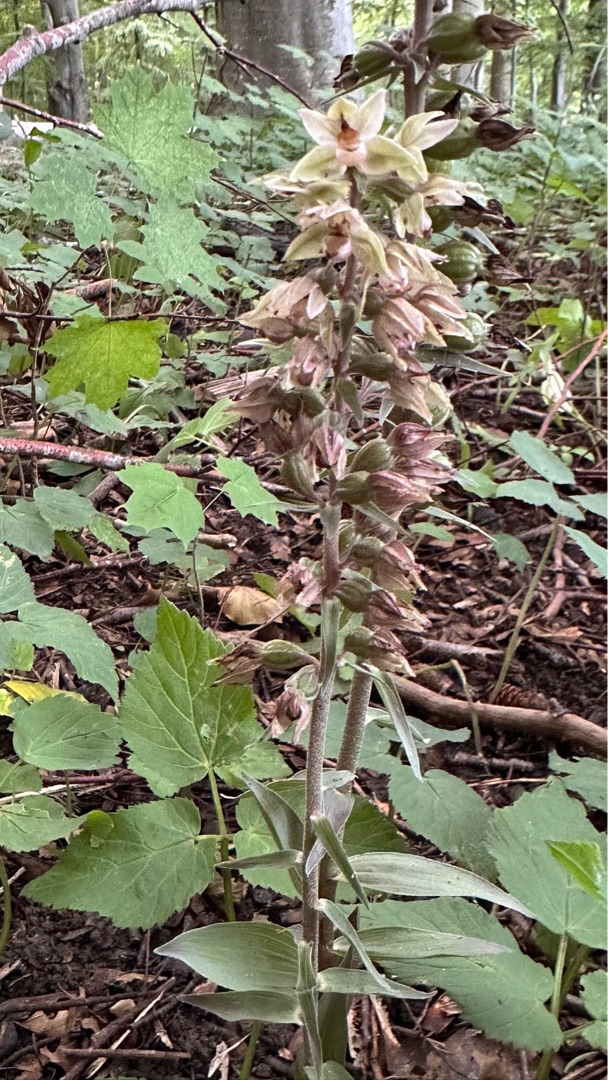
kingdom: Plantae
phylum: Tracheophyta
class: Liliopsida
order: Asparagales
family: Orchidaceae
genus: Epipactis
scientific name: Epipactis purpurata
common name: Tætblomstret hullæbe
